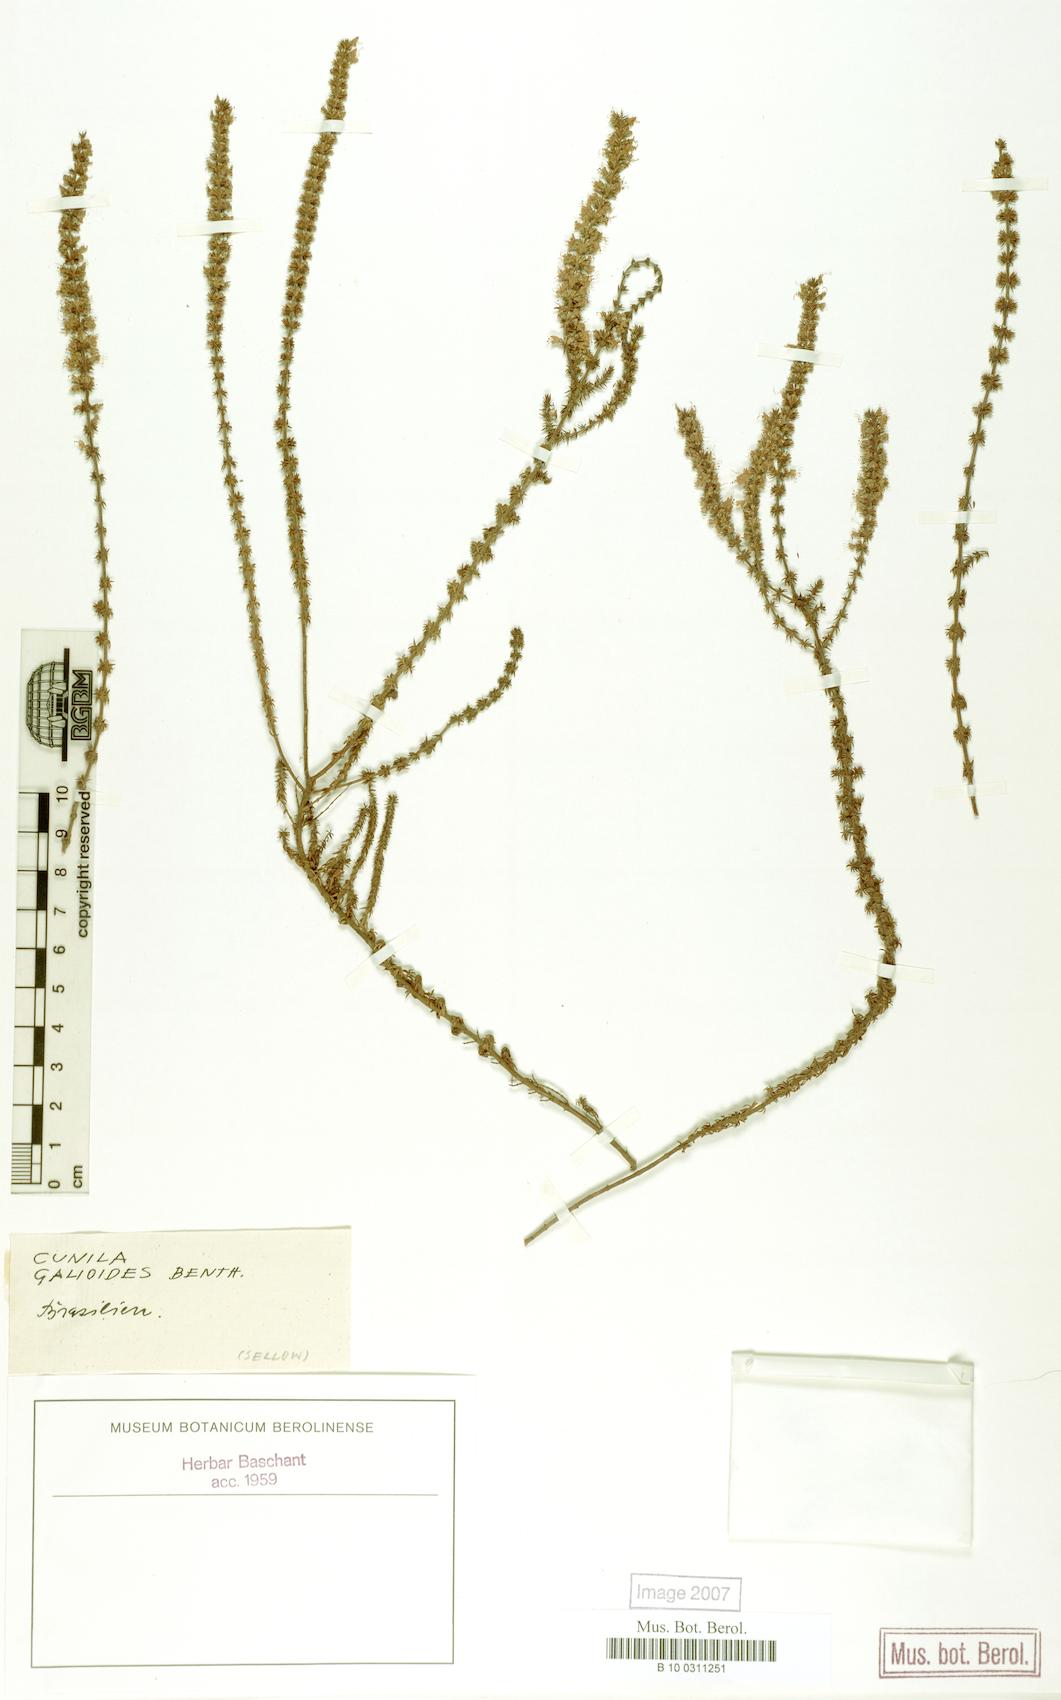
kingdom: Plantae
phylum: Tracheophyta
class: Magnoliopsida
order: Lamiales
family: Lamiaceae
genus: Cunila
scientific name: Cunila galioides
